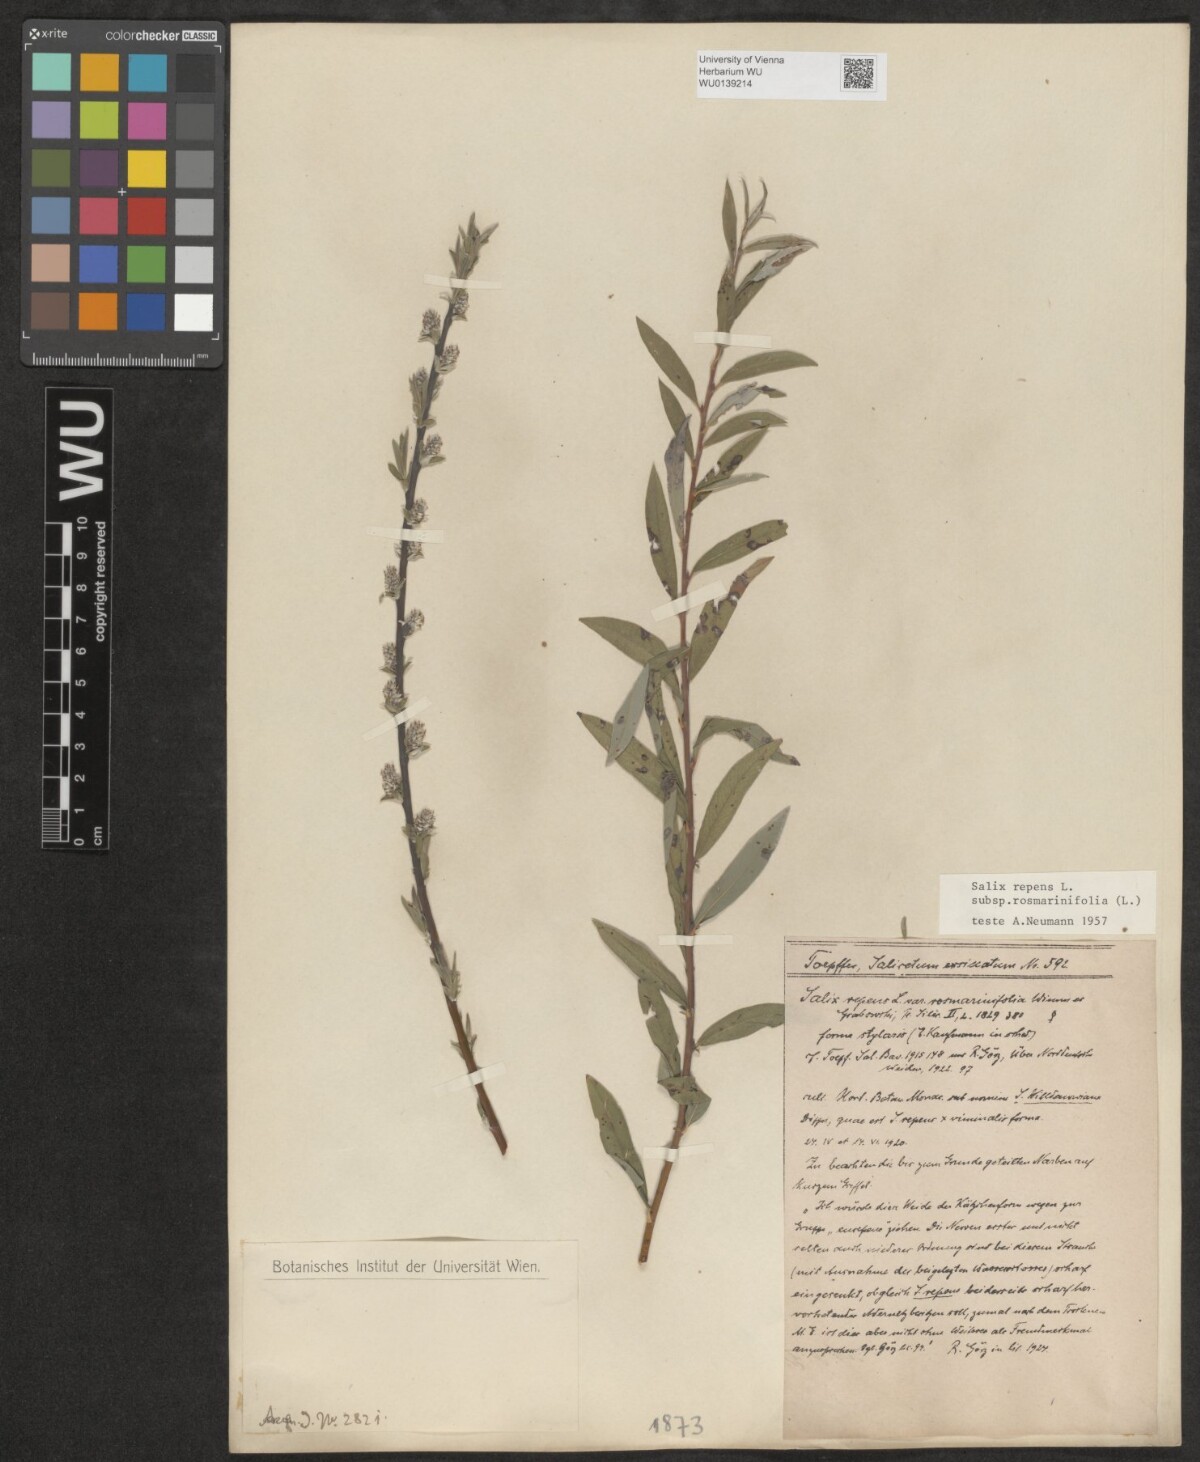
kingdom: Plantae
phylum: Tracheophyta
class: Magnoliopsida
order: Malpighiales
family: Salicaceae
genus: Salix
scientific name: Salix repens
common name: Creeping willow
